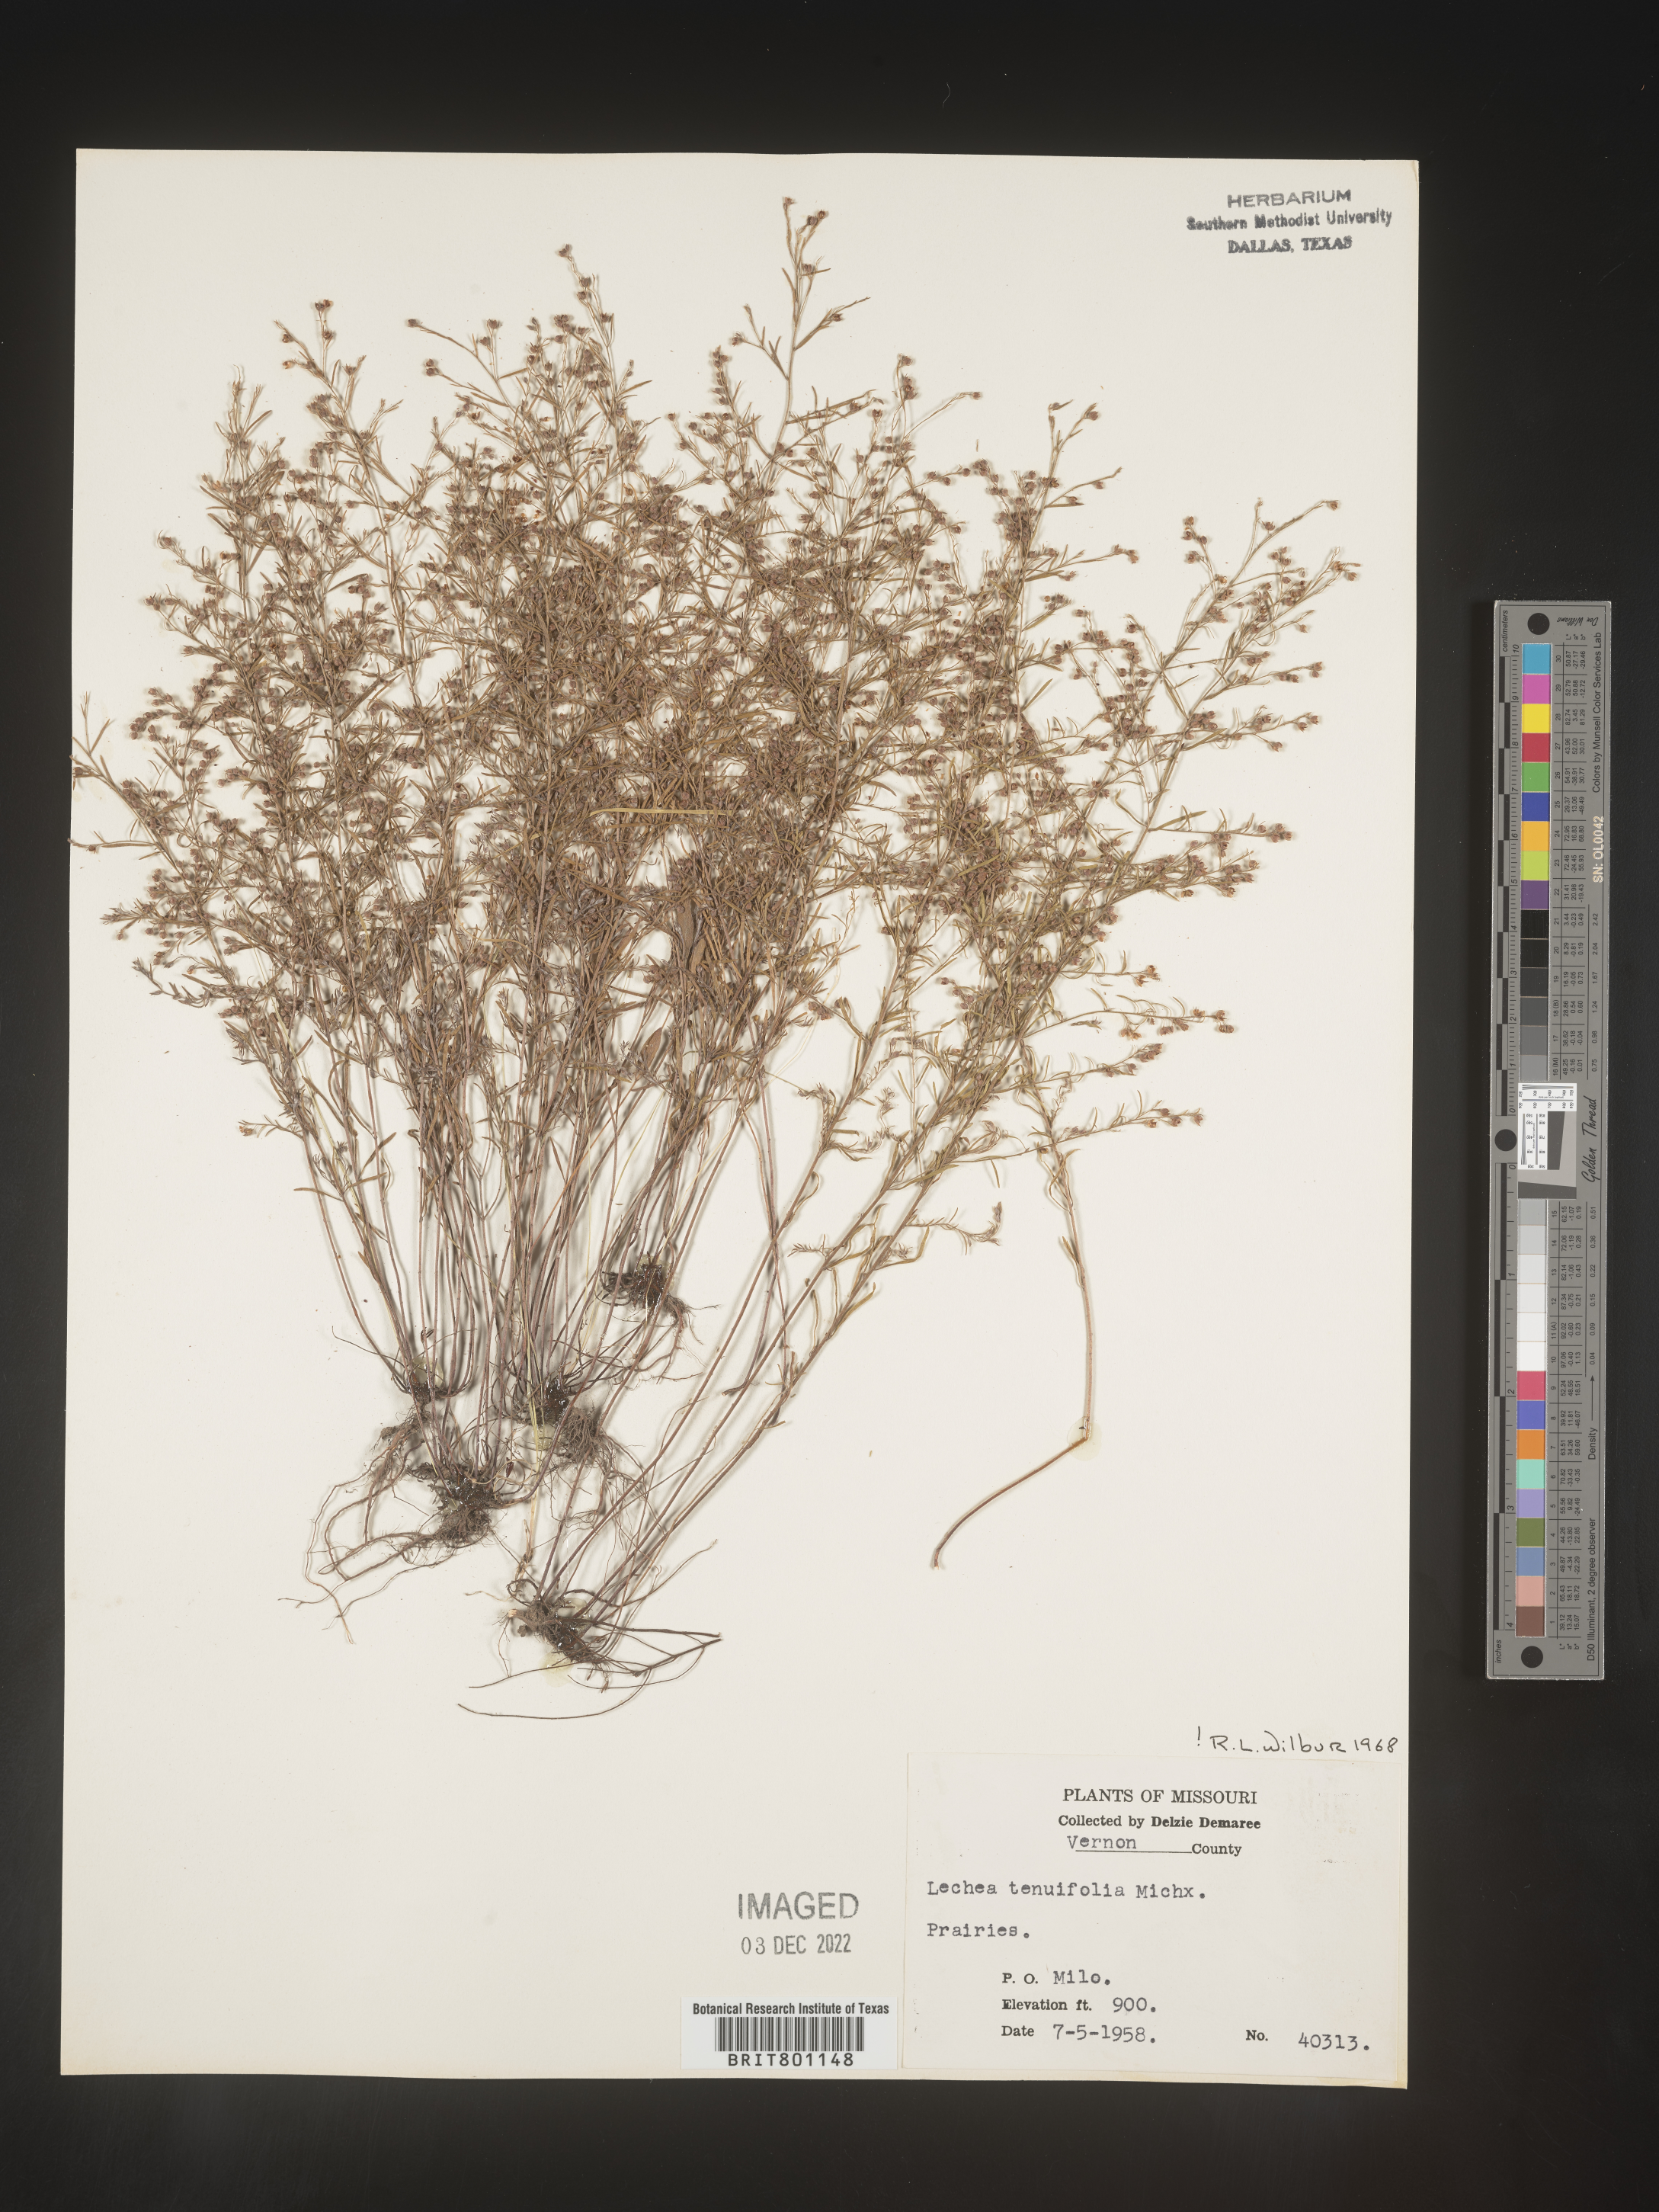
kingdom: Plantae
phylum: Tracheophyta
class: Magnoliopsida
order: Malvales
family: Cistaceae
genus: Lechea
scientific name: Lechea tenuifolia
